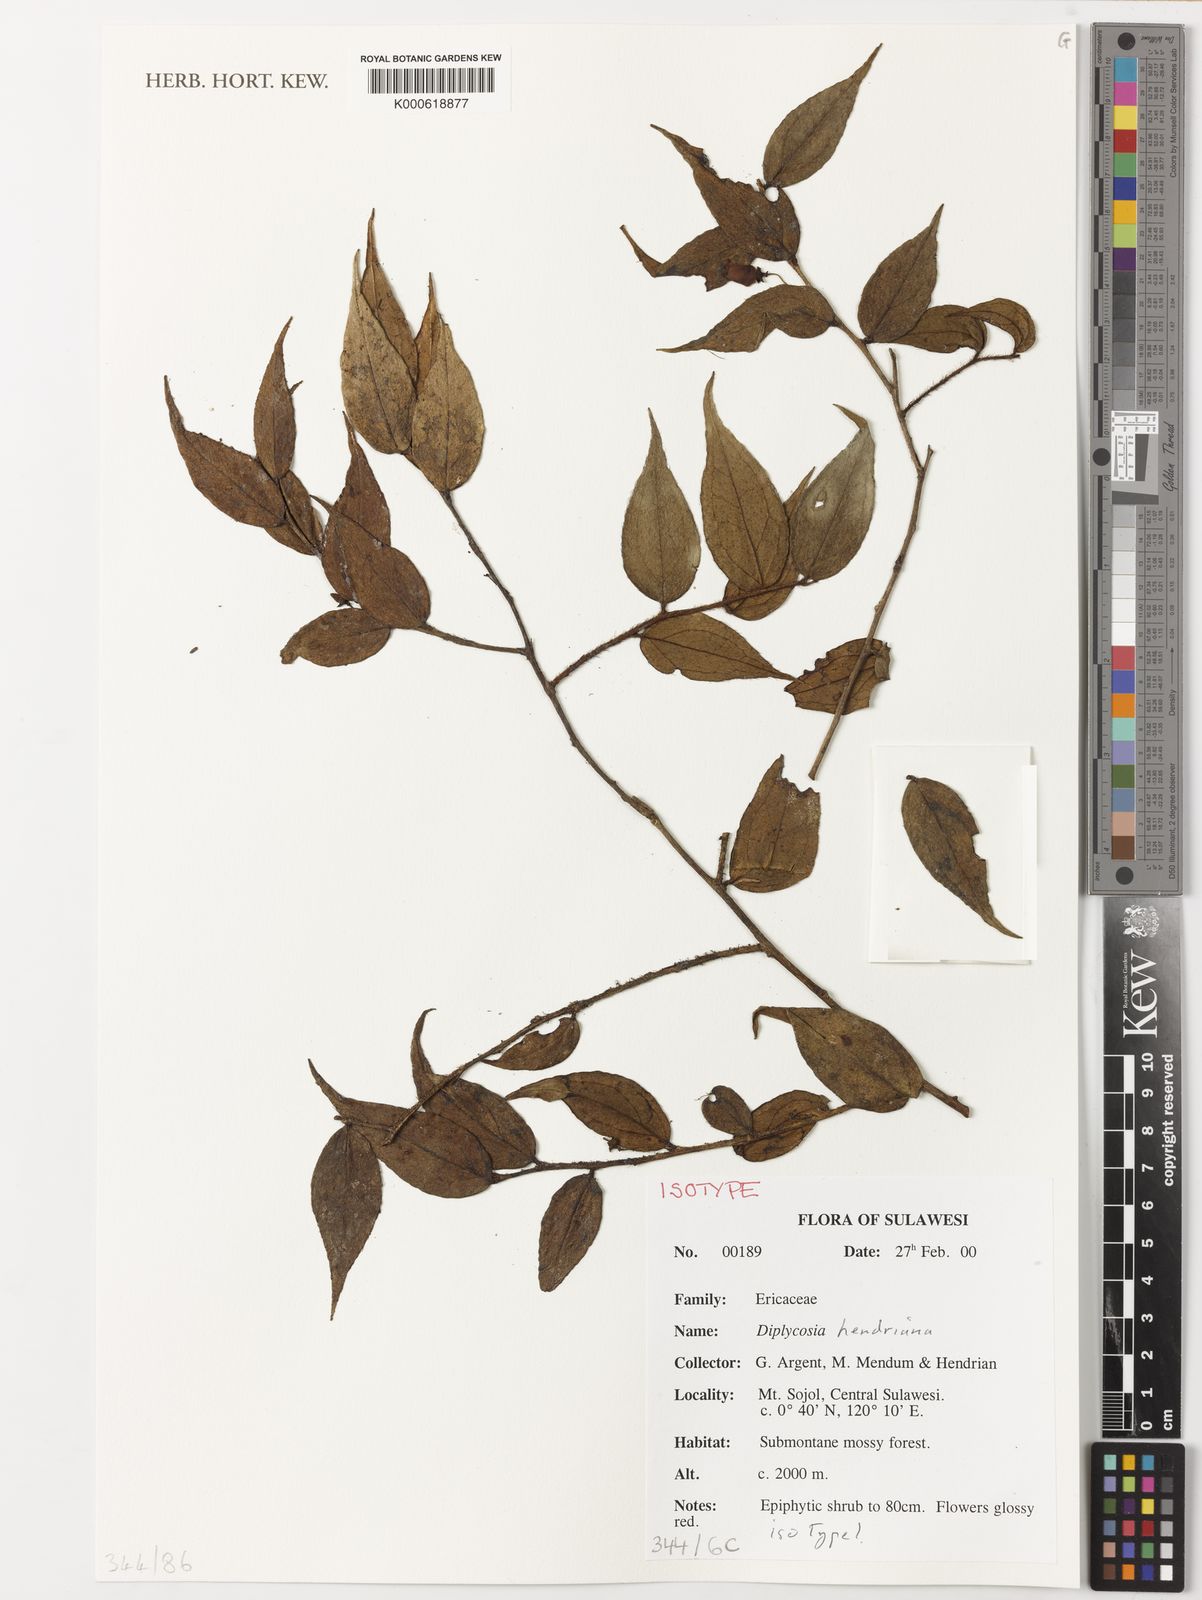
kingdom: Plantae
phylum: Tracheophyta
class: Magnoliopsida
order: Ericales
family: Ericaceae
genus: Gaultheria
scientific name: Gaultheria
